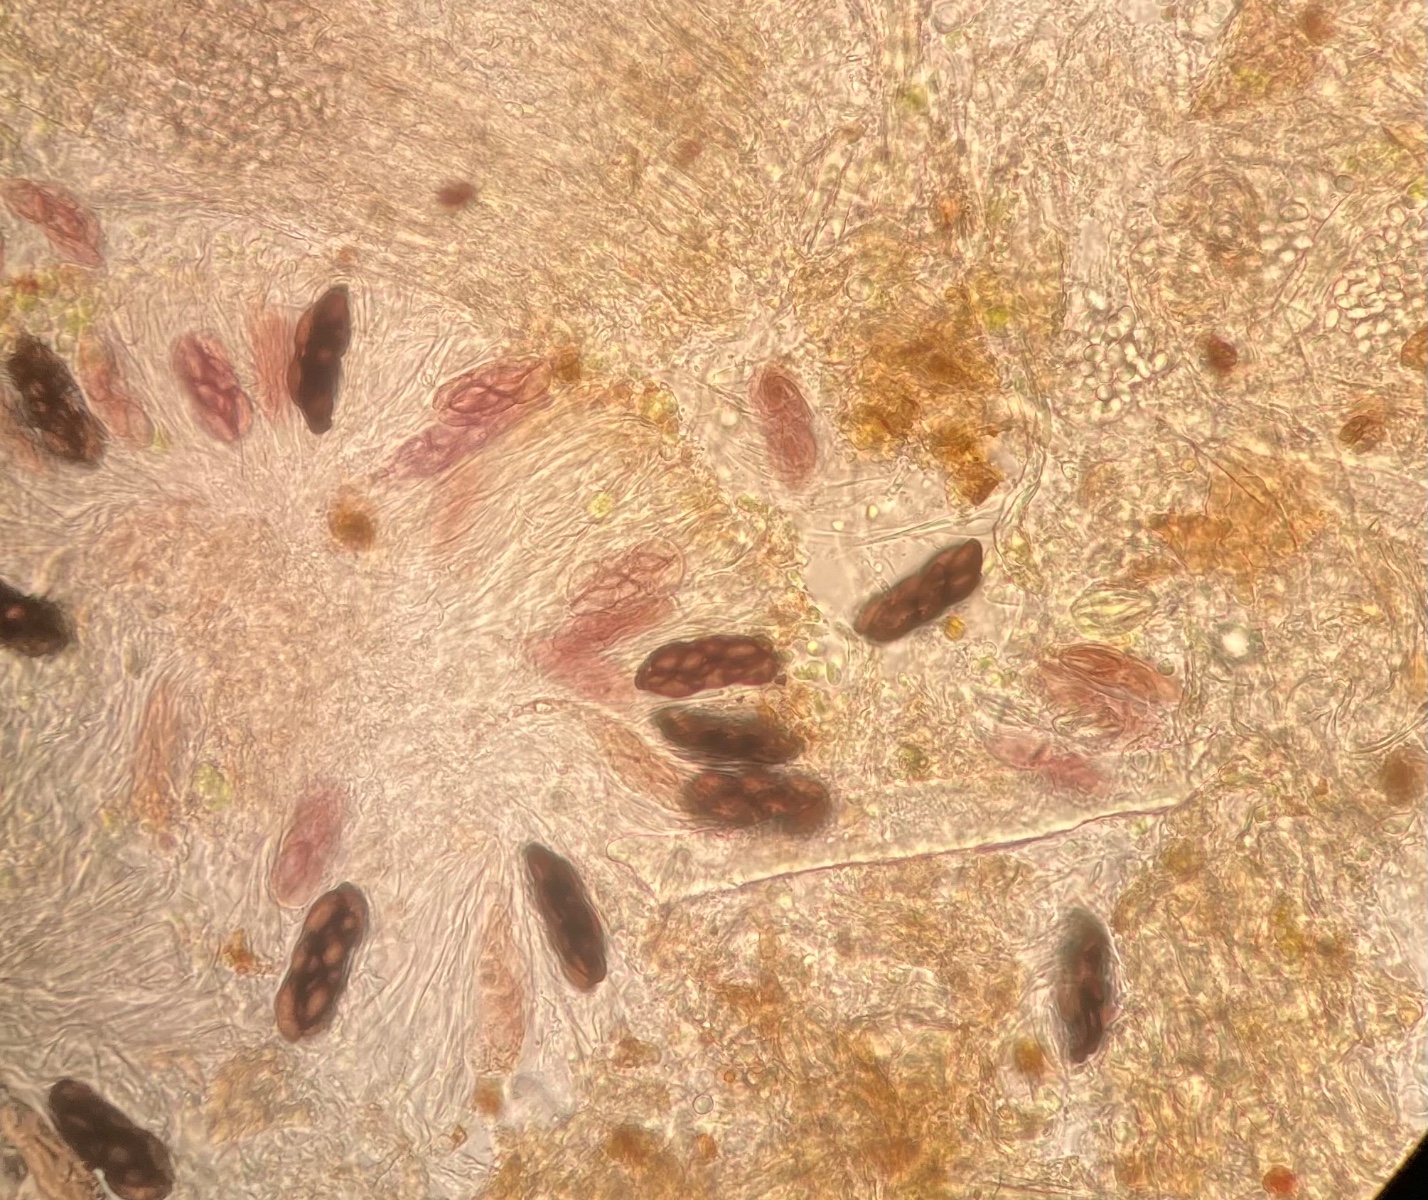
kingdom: Fungi
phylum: Ascomycota
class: Pezizomycetes
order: Pezizales
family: Ascobolaceae
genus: Saccobolus
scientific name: Saccobolus obscurus
